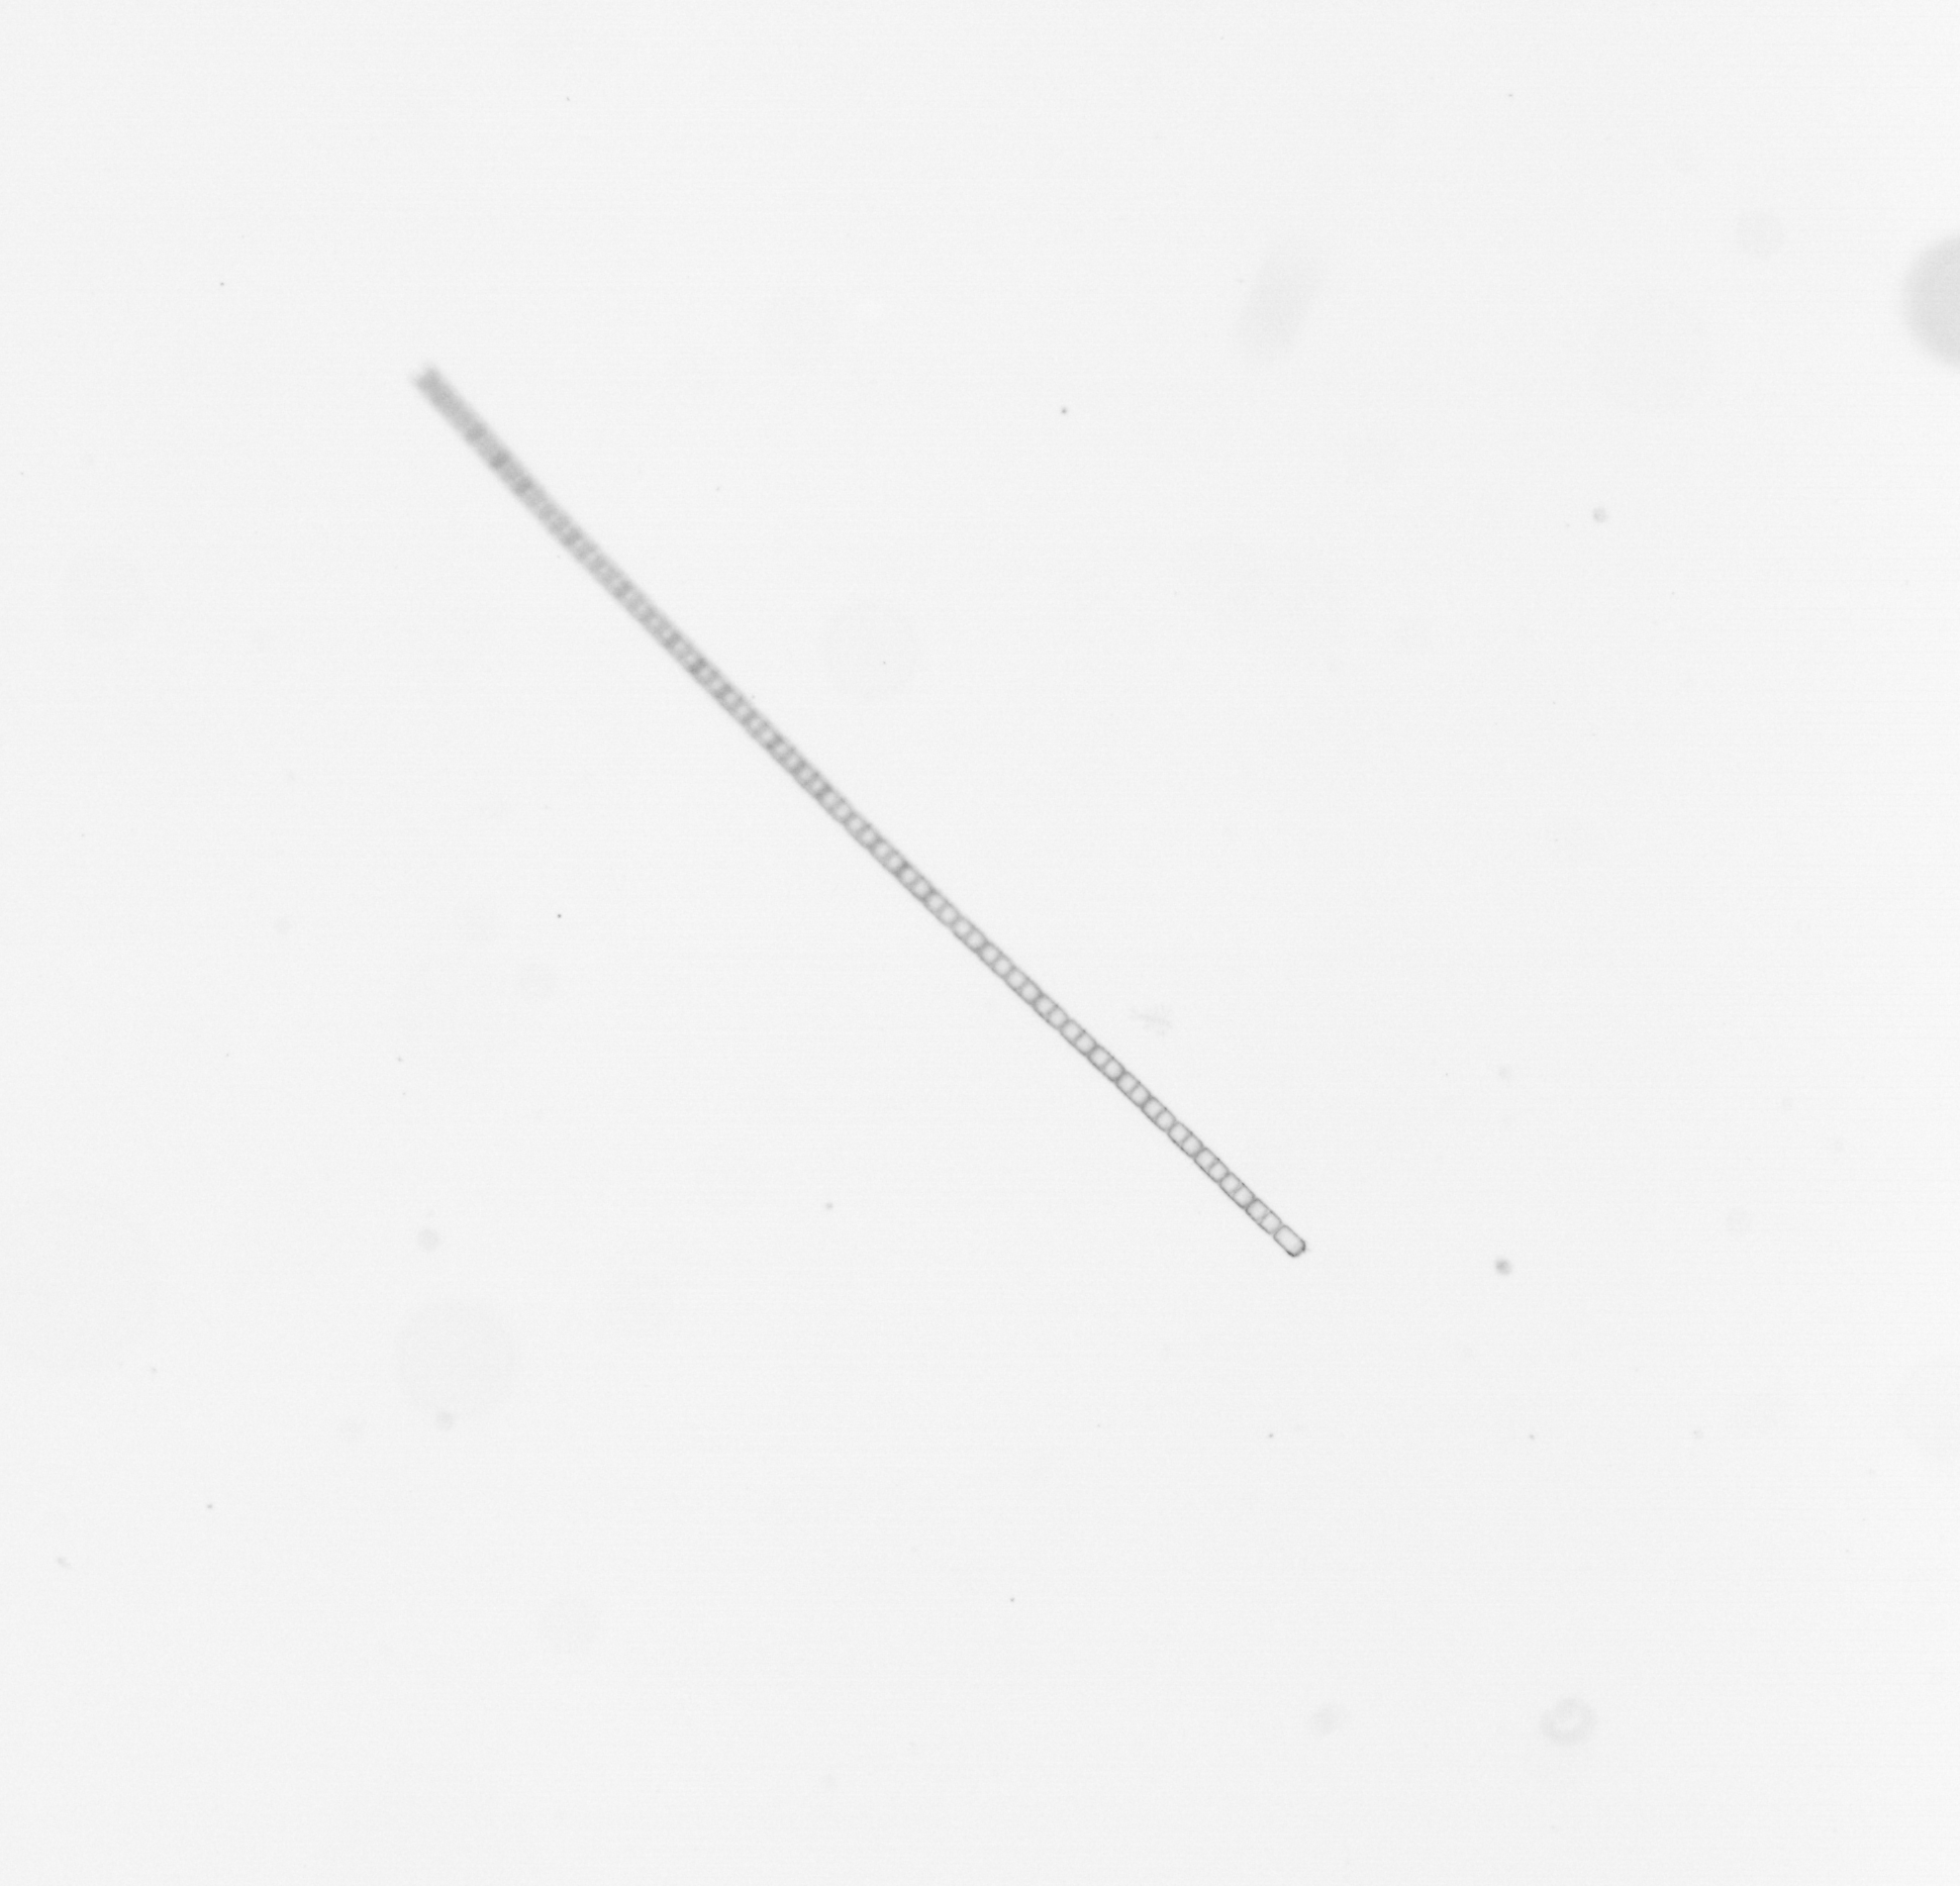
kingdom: Chromista
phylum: Ochrophyta
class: Bacillariophyceae
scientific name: Bacillariophyceae
